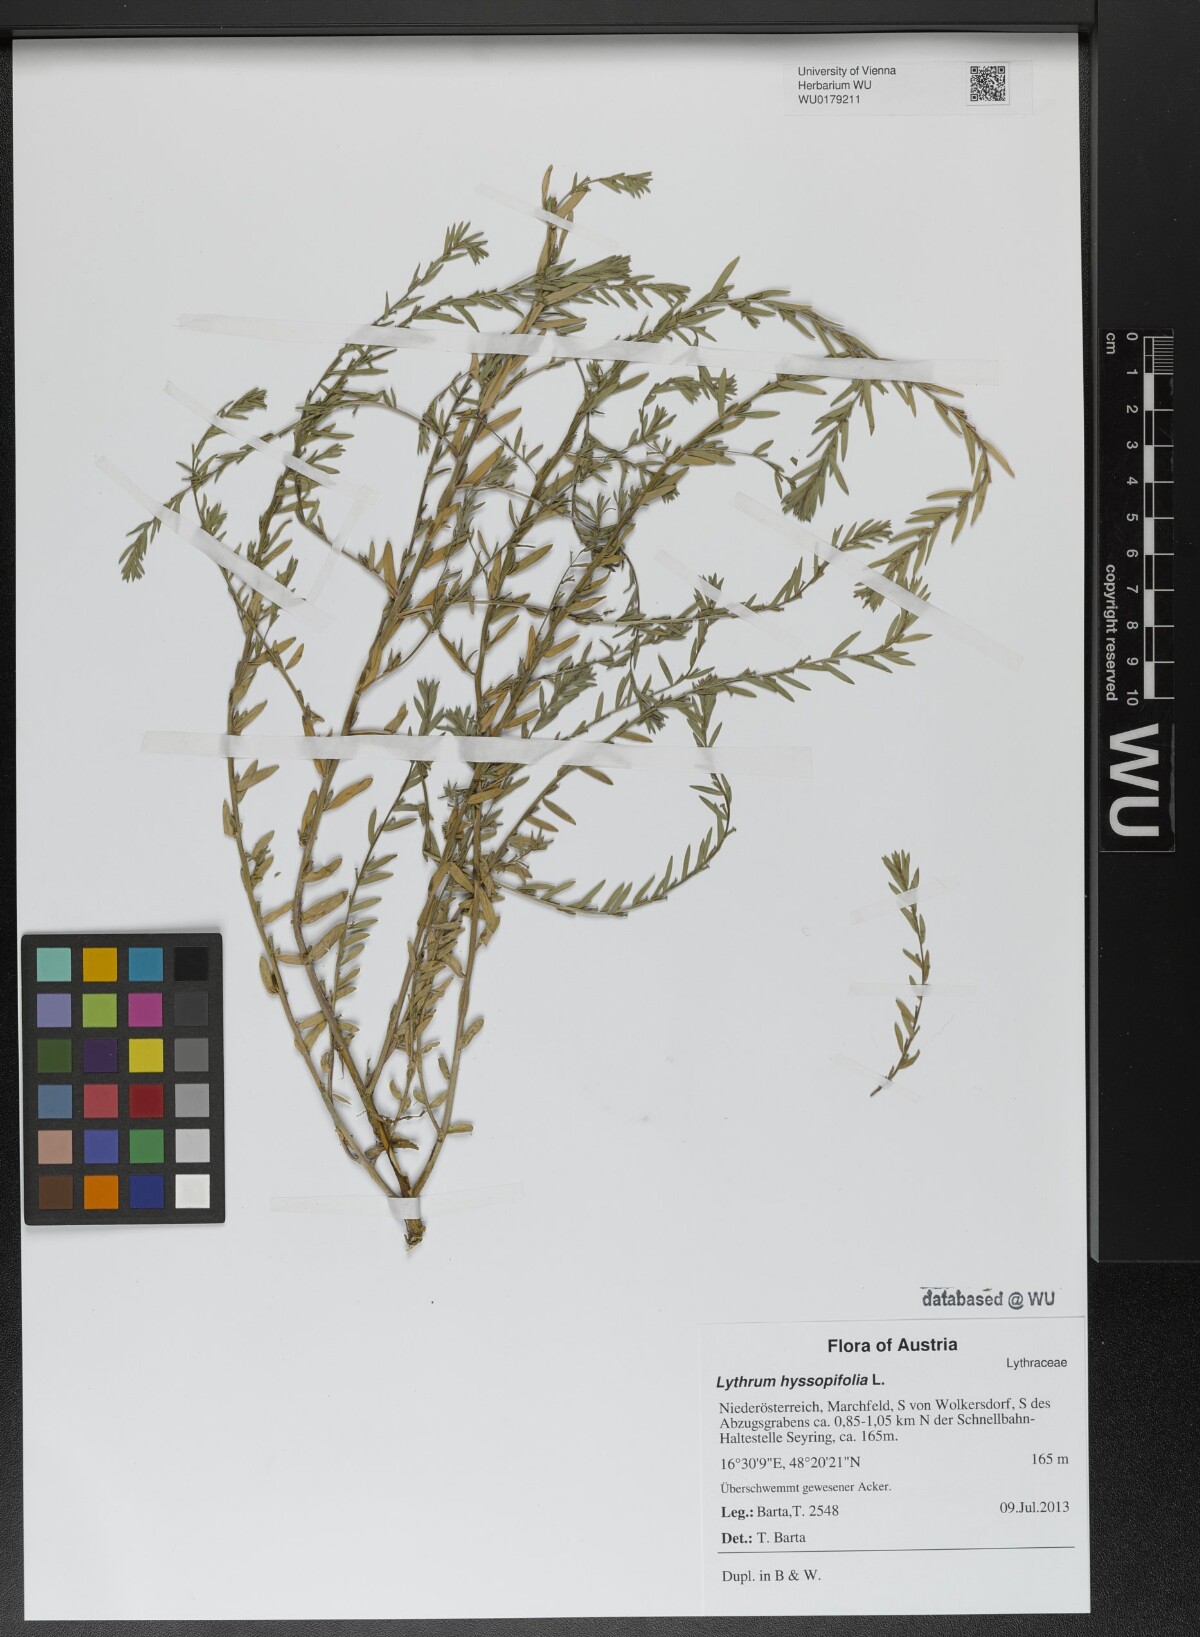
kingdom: Plantae
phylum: Tracheophyta
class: Magnoliopsida
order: Myrtales
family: Lythraceae
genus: Lythrum
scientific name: Lythrum hyssopifolia
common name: Grass-poly
